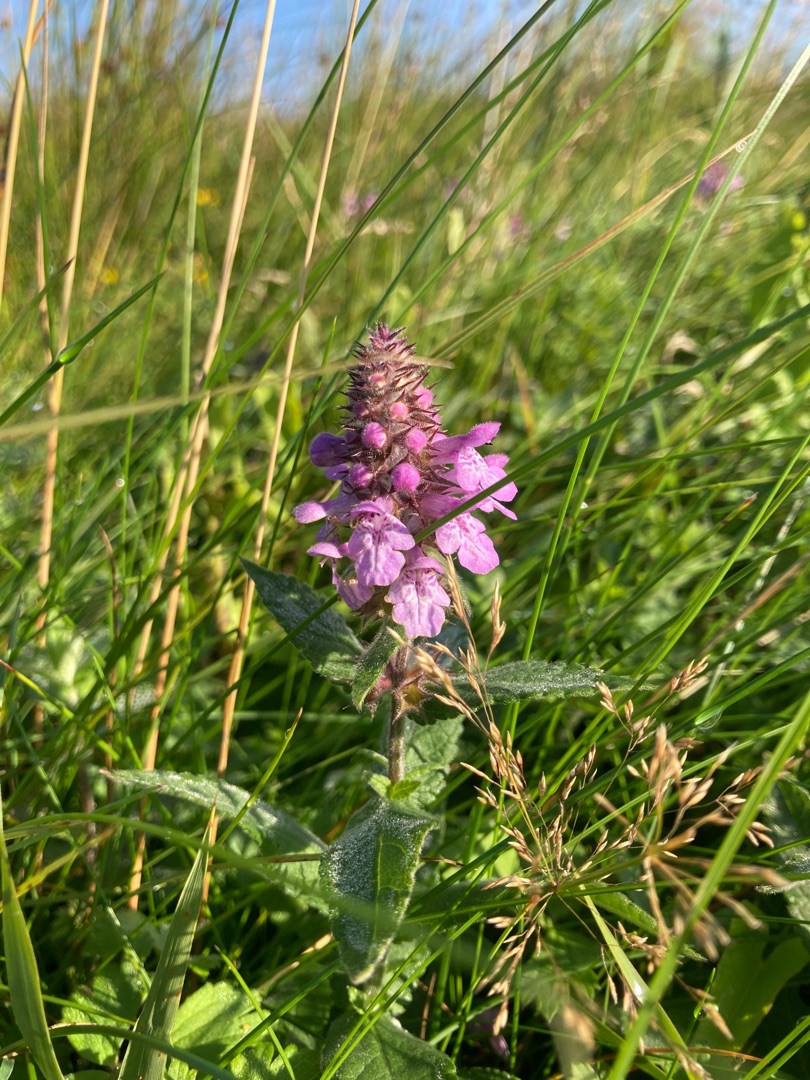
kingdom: Plantae
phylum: Tracheophyta
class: Magnoliopsida
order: Lamiales
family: Lamiaceae
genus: Stachys
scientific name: Stachys palustris
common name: Kær-galtetand
